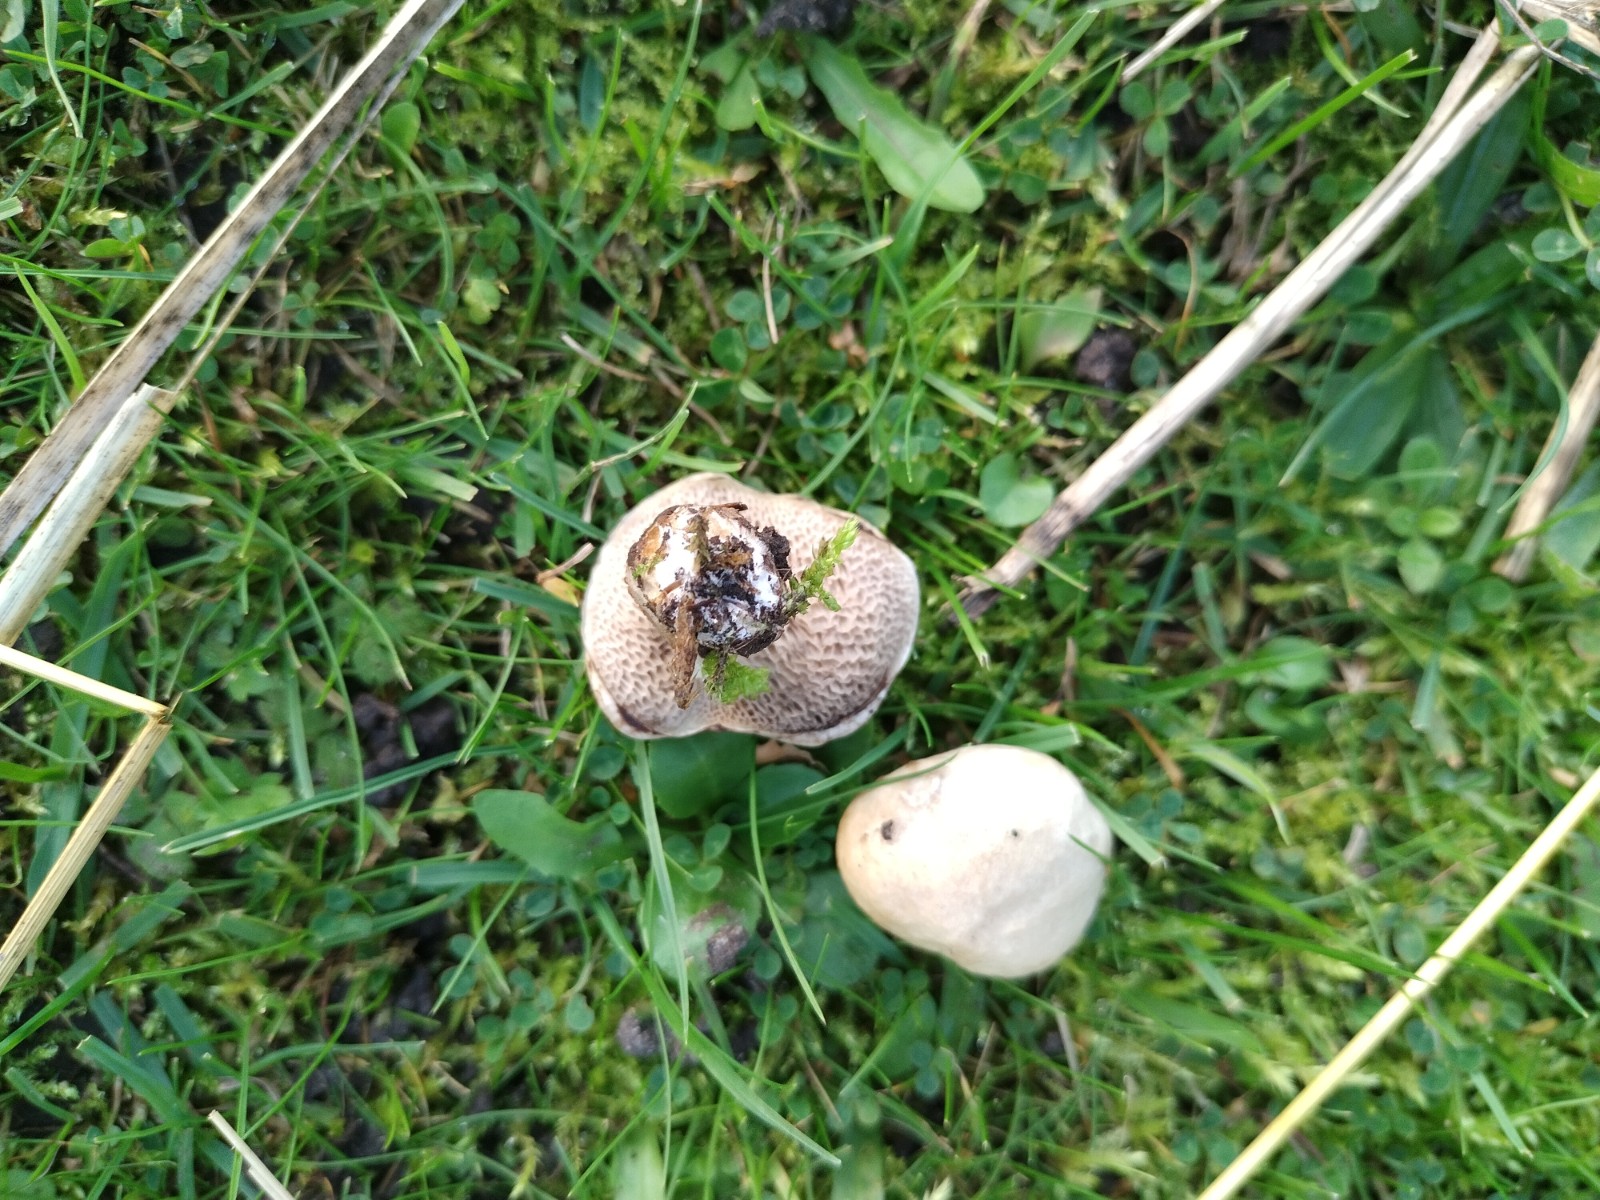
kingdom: Fungi
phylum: Basidiomycota
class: Agaricomycetes
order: Boletales
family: Suillaceae
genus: Suillus
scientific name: Suillus viscidus
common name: olivengrå slimrørhat
